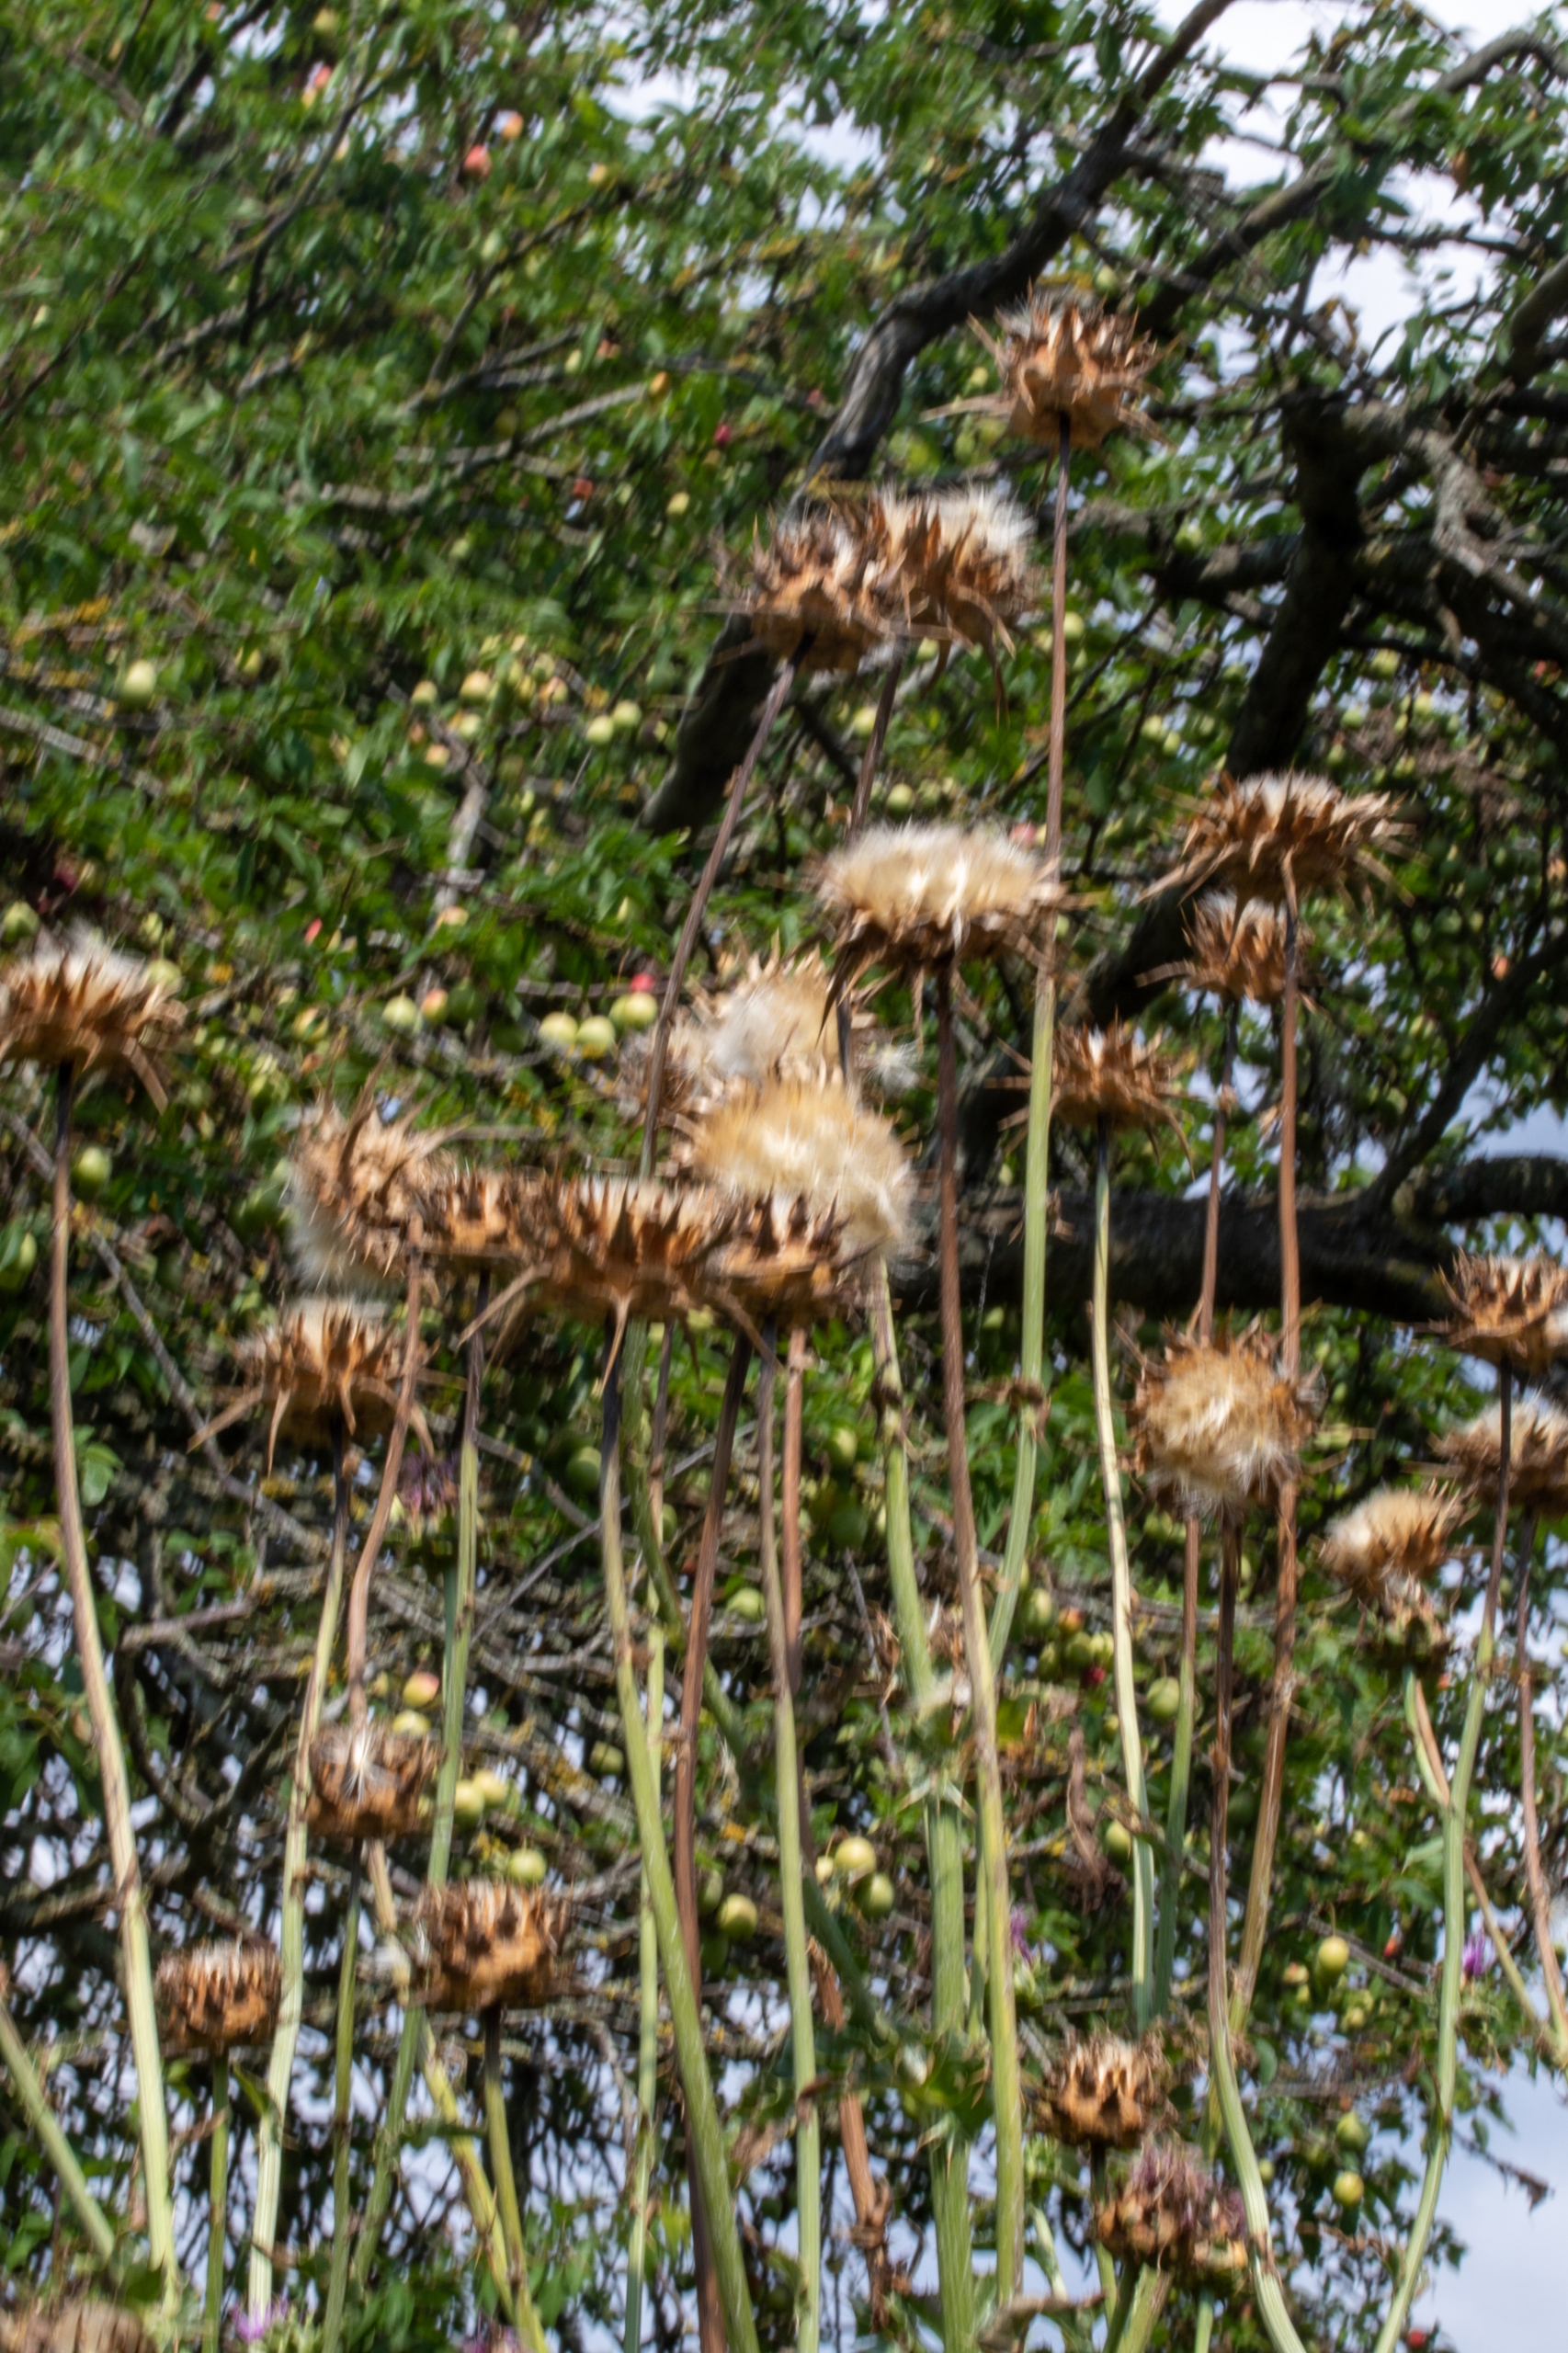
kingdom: Plantae
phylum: Tracheophyta
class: Magnoliopsida
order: Asterales
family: Asteraceae
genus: Silybum
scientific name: Silybum marianum
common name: Marietidsel
